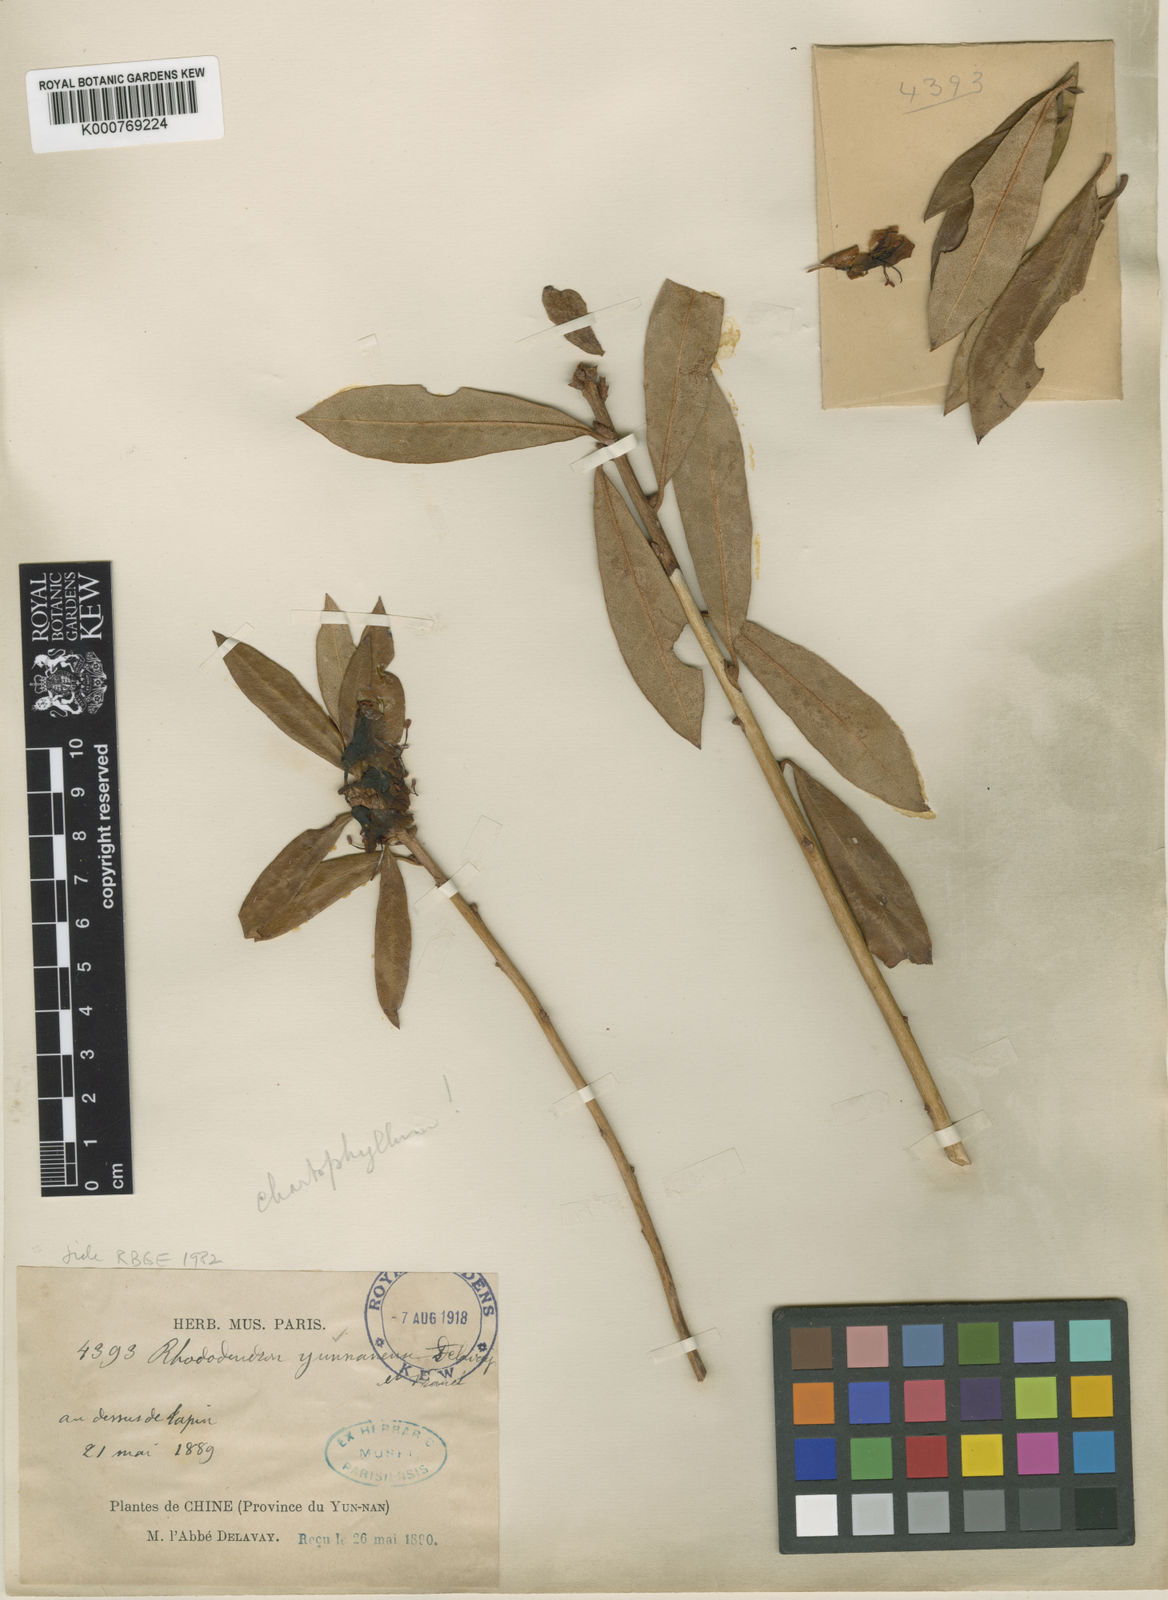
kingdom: Plantae
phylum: Tracheophyta
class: Magnoliopsida
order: Ericales
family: Ericaceae
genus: Rhododendron
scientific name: Rhododendron yunnanense
